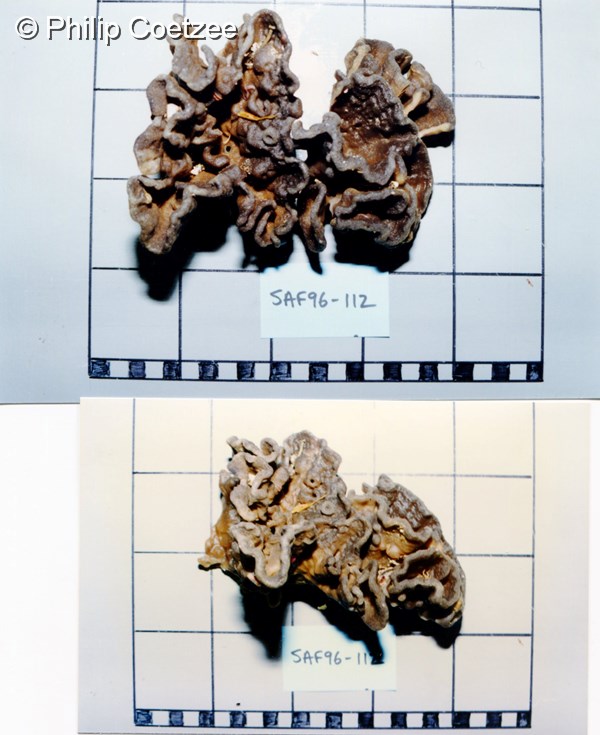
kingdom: Animalia
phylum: Porifera
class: Demospongiae
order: Axinellida
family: Axinellidae
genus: Cymbastela
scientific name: Cymbastela
